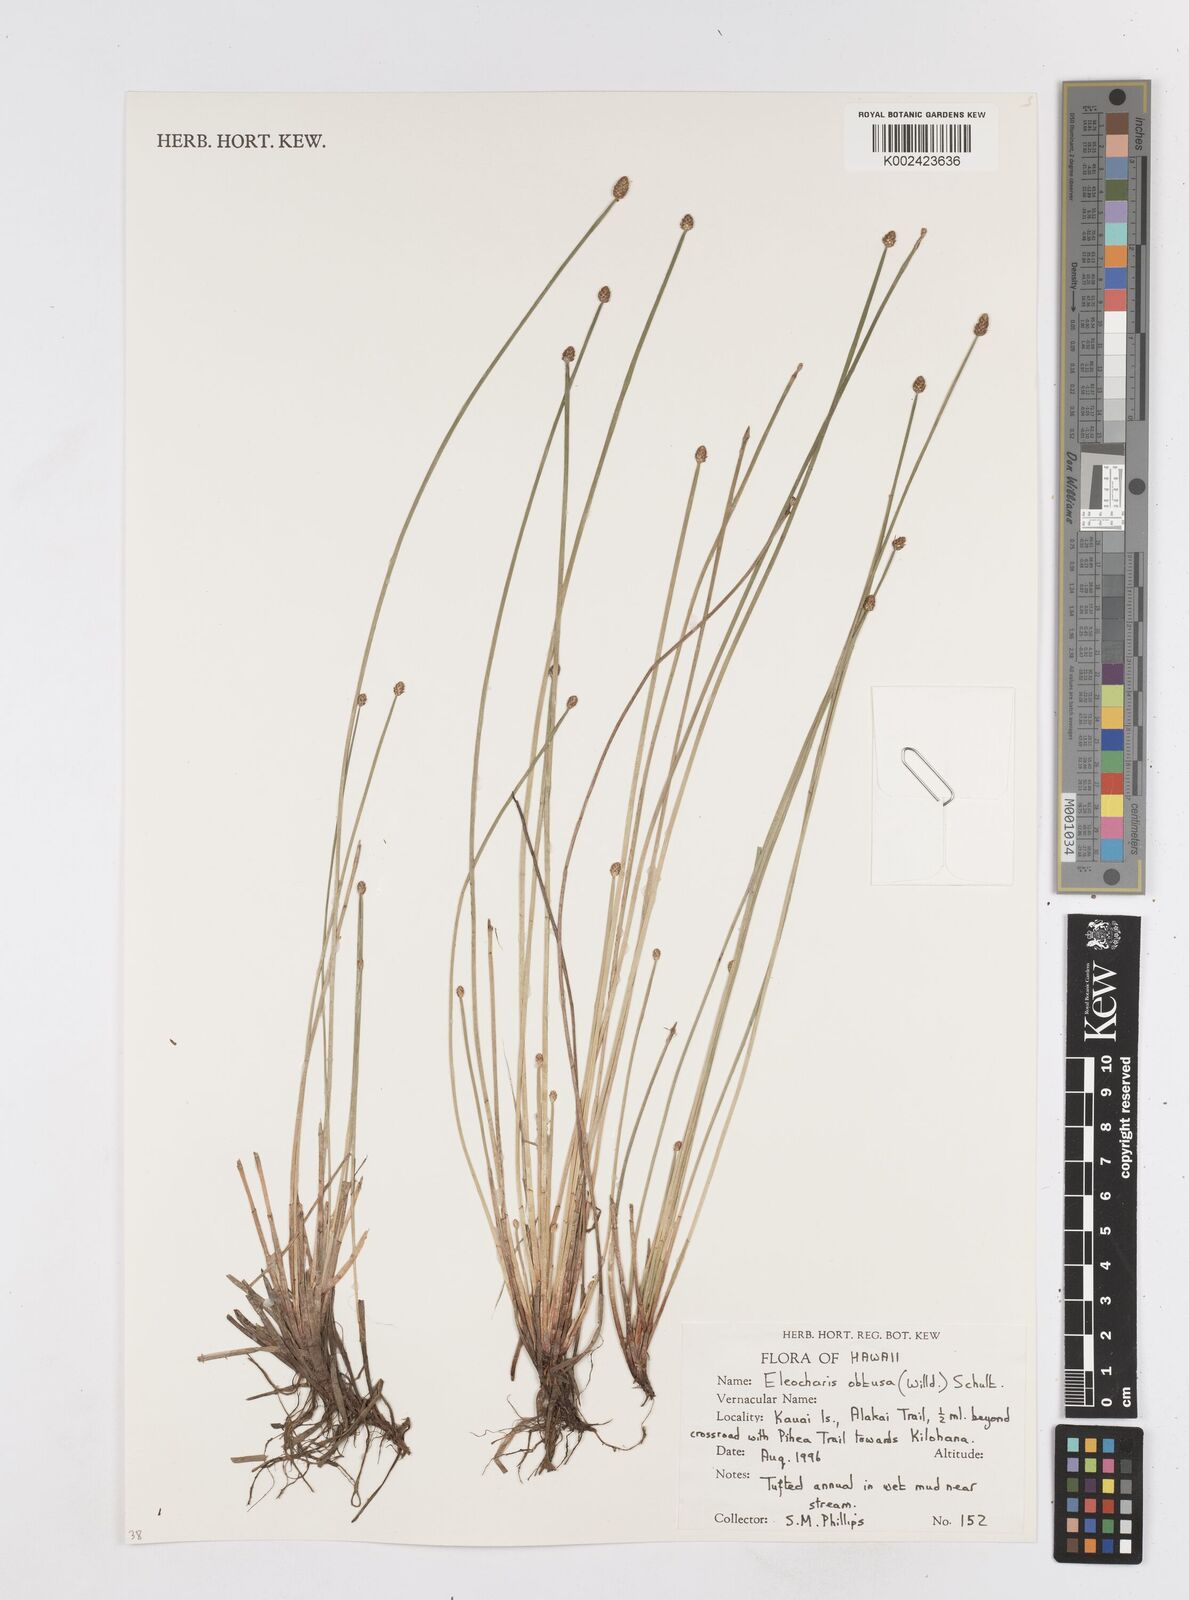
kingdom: Plantae
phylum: Tracheophyta
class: Liliopsida
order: Poales
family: Cyperaceae
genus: Eleocharis
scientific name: Eleocharis obtusa
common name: Blunt spikerush
